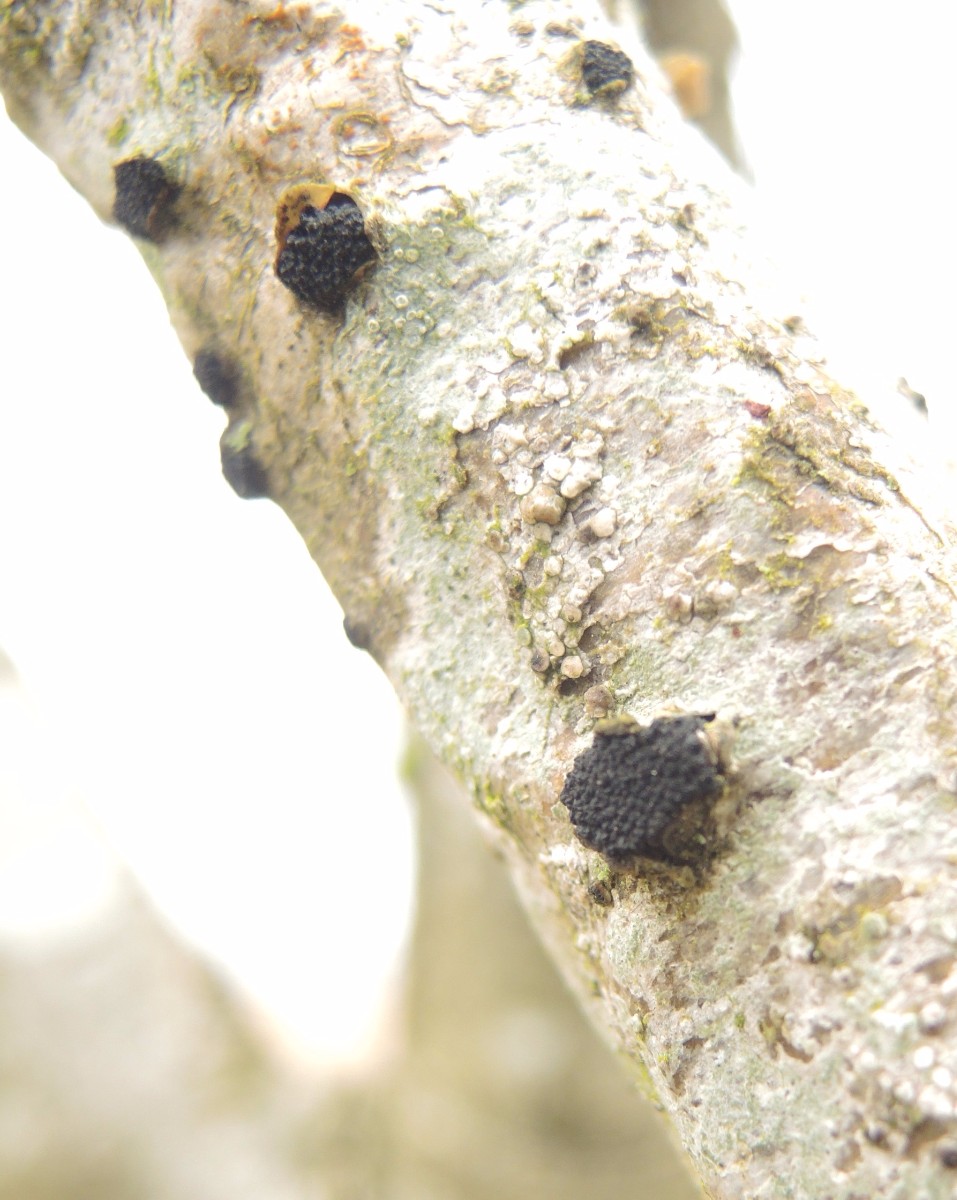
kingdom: Fungi
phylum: Ascomycota
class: Sordariomycetes
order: Xylariales
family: Diatrypaceae
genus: Eutypella
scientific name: Eutypella sorbi
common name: rønne-kulskorpe
